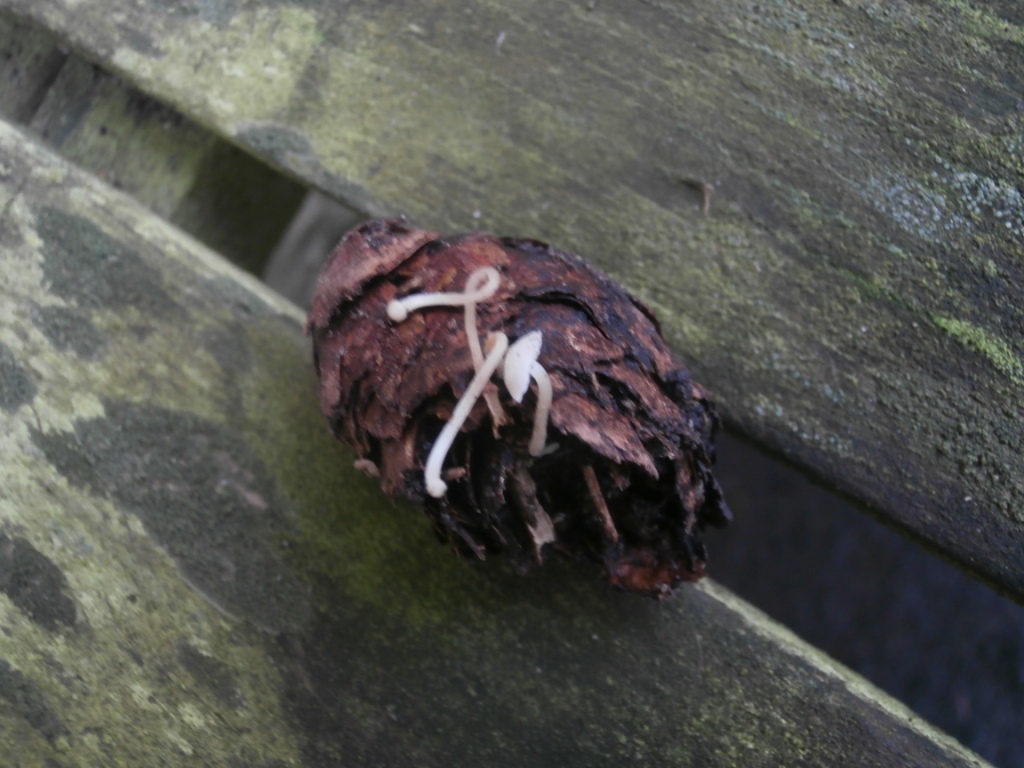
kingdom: Fungi
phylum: Basidiomycota
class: Agaricomycetes
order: Agaricales
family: Marasmiaceae
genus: Baeospora
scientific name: Baeospora myosura
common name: koglebruskhat
